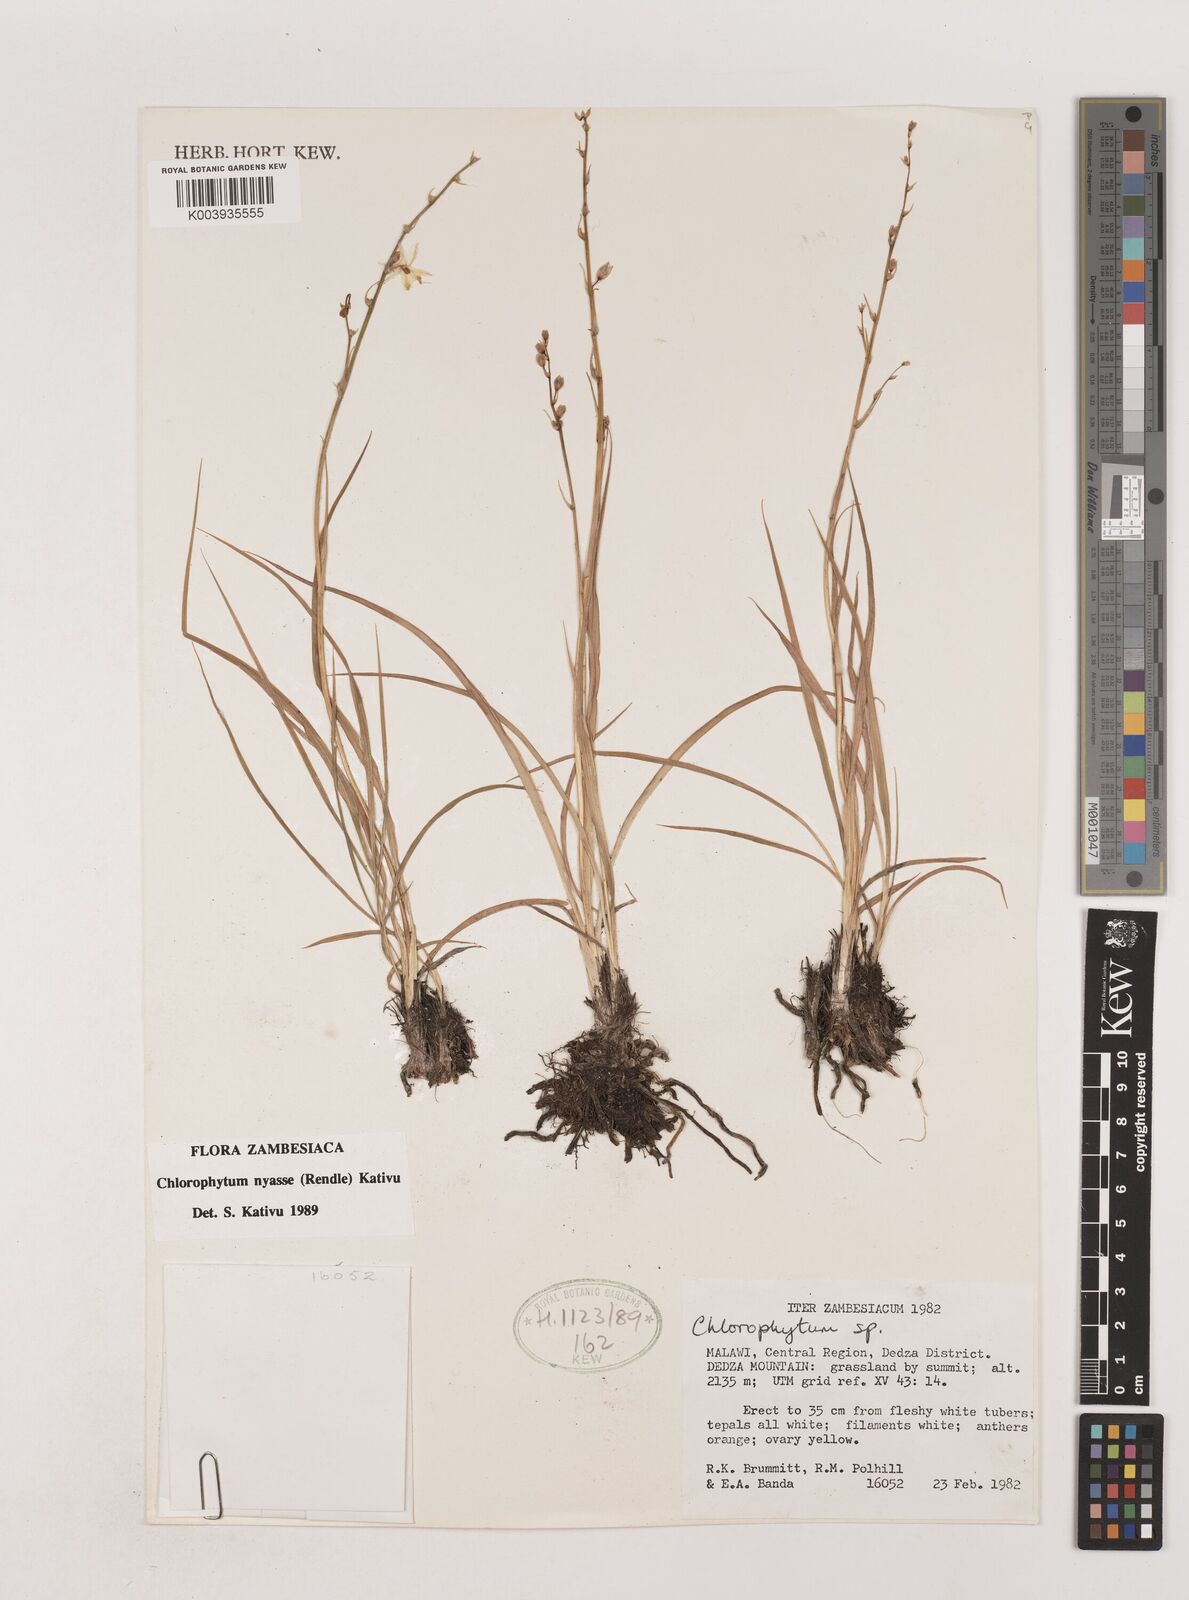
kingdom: Plantae
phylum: Tracheophyta
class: Liliopsida
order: Asparagales
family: Asparagaceae
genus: Chlorophytum
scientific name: Chlorophytum nyasae
